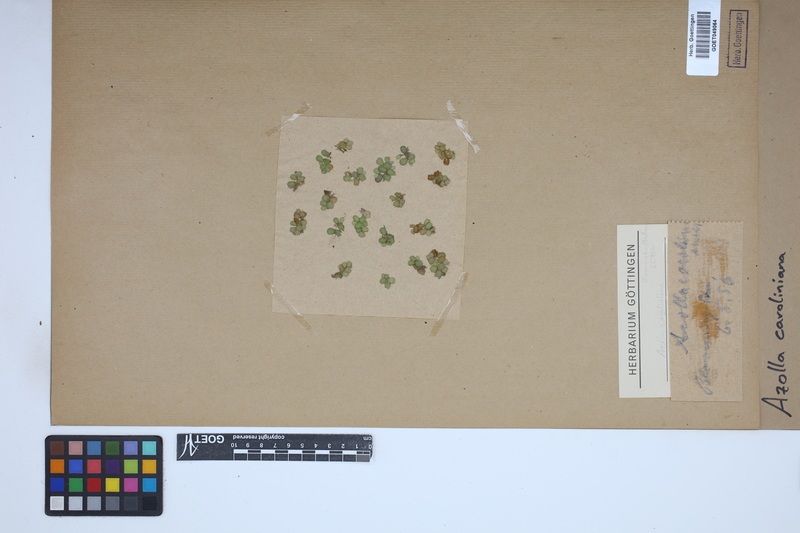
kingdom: Plantae
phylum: Tracheophyta
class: Polypodiopsida
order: Salviniales
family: Salviniaceae
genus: Azolla
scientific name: Azolla caroliniana
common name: Carolina mosquitofern
